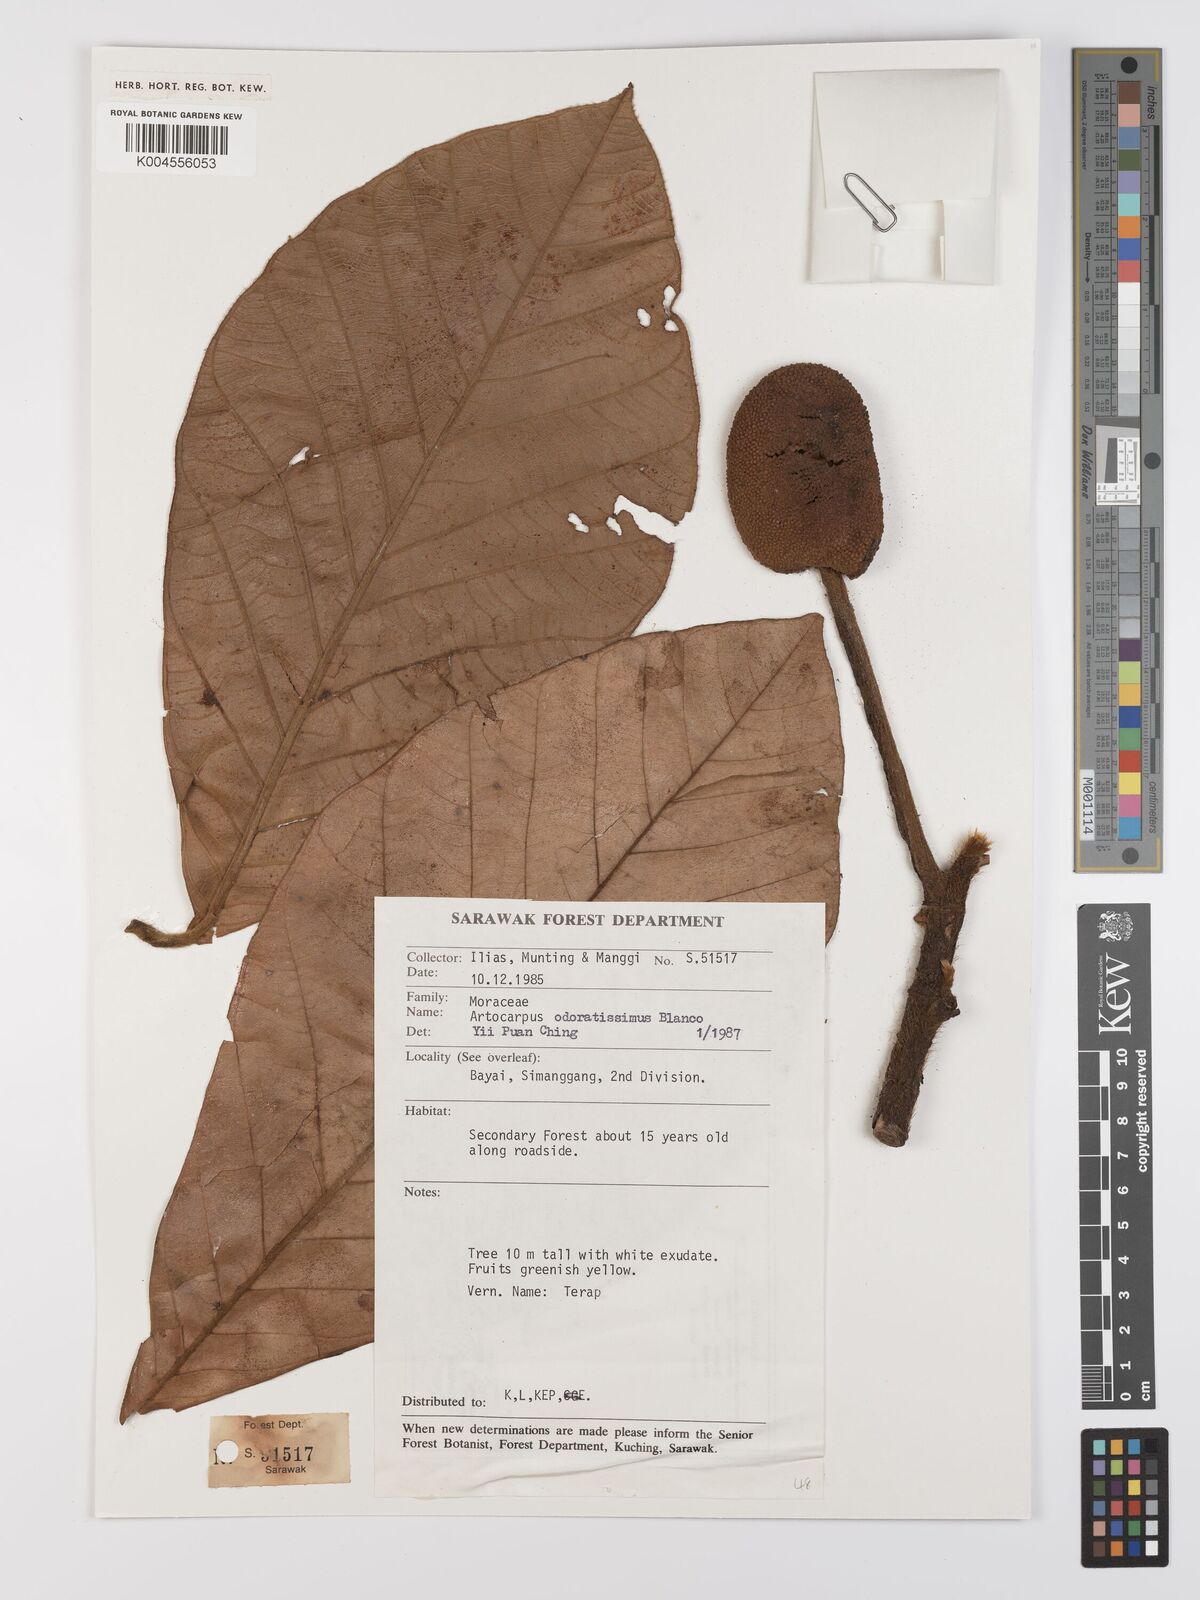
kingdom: Plantae
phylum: Tracheophyta
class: Magnoliopsida
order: Rosales
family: Moraceae
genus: Artocarpus
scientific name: Artocarpus odoratissimus
